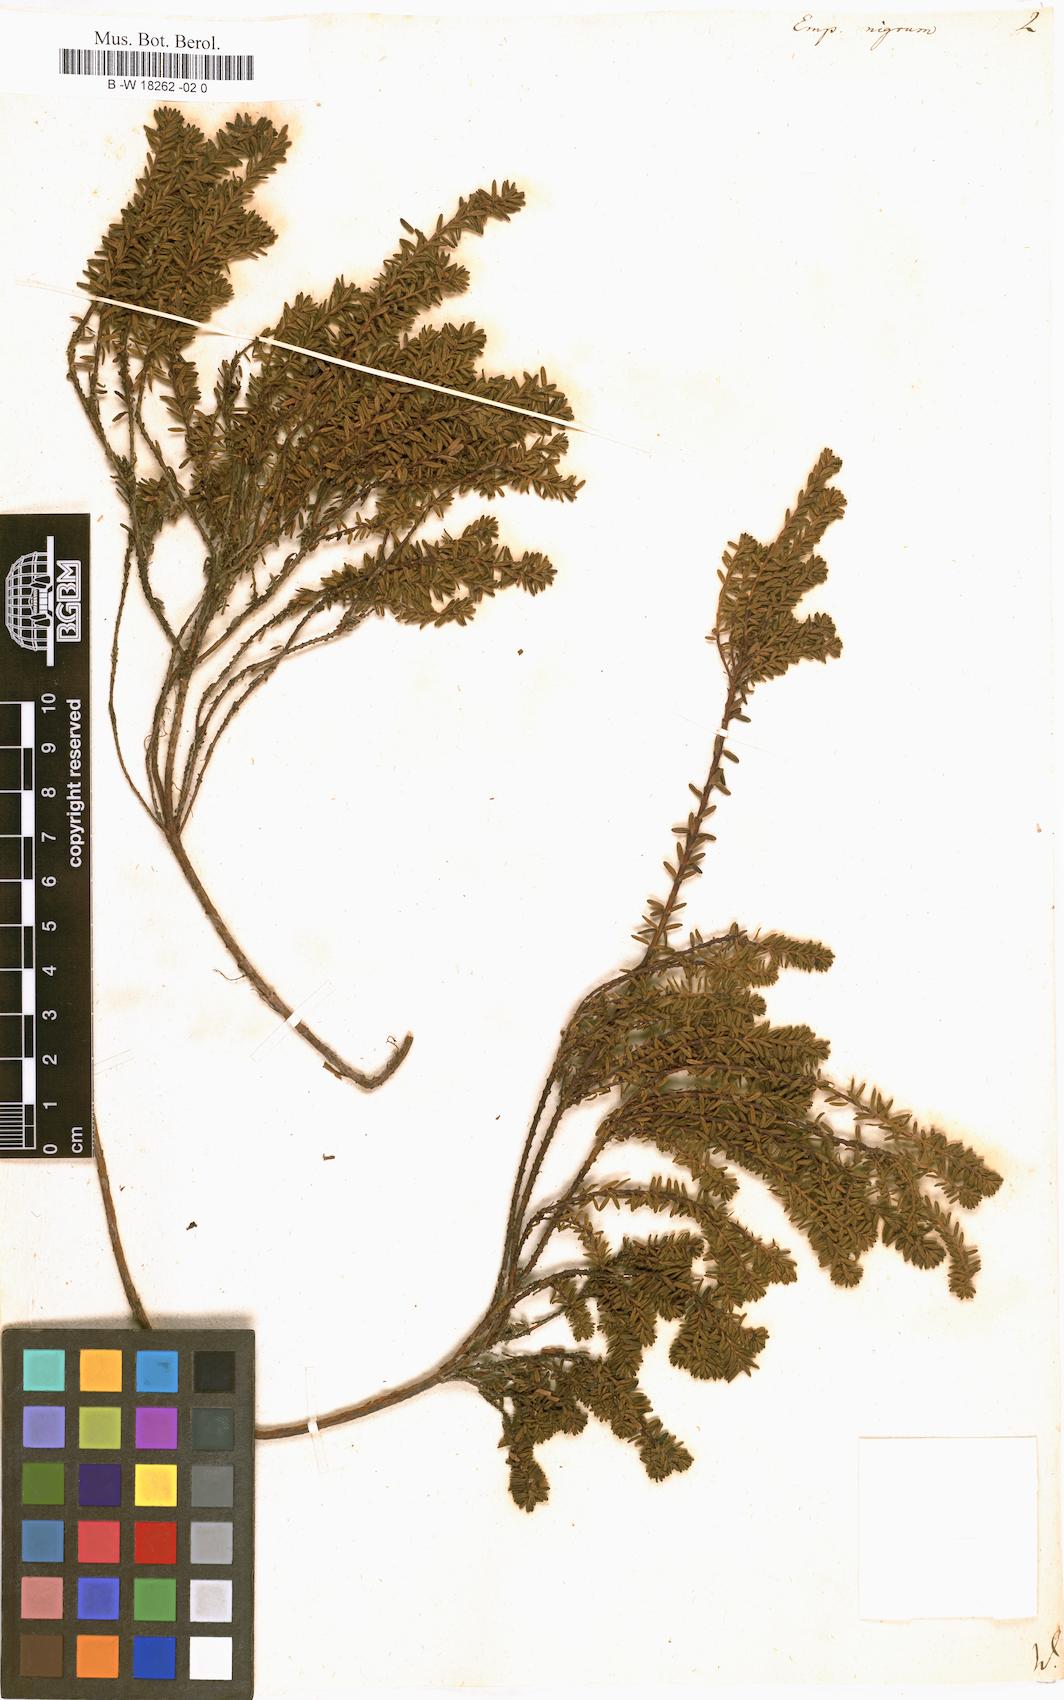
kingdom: Plantae
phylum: Tracheophyta
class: Magnoliopsida
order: Ericales
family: Ericaceae
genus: Empetrum
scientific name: Empetrum nigrum
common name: Black crowberry
